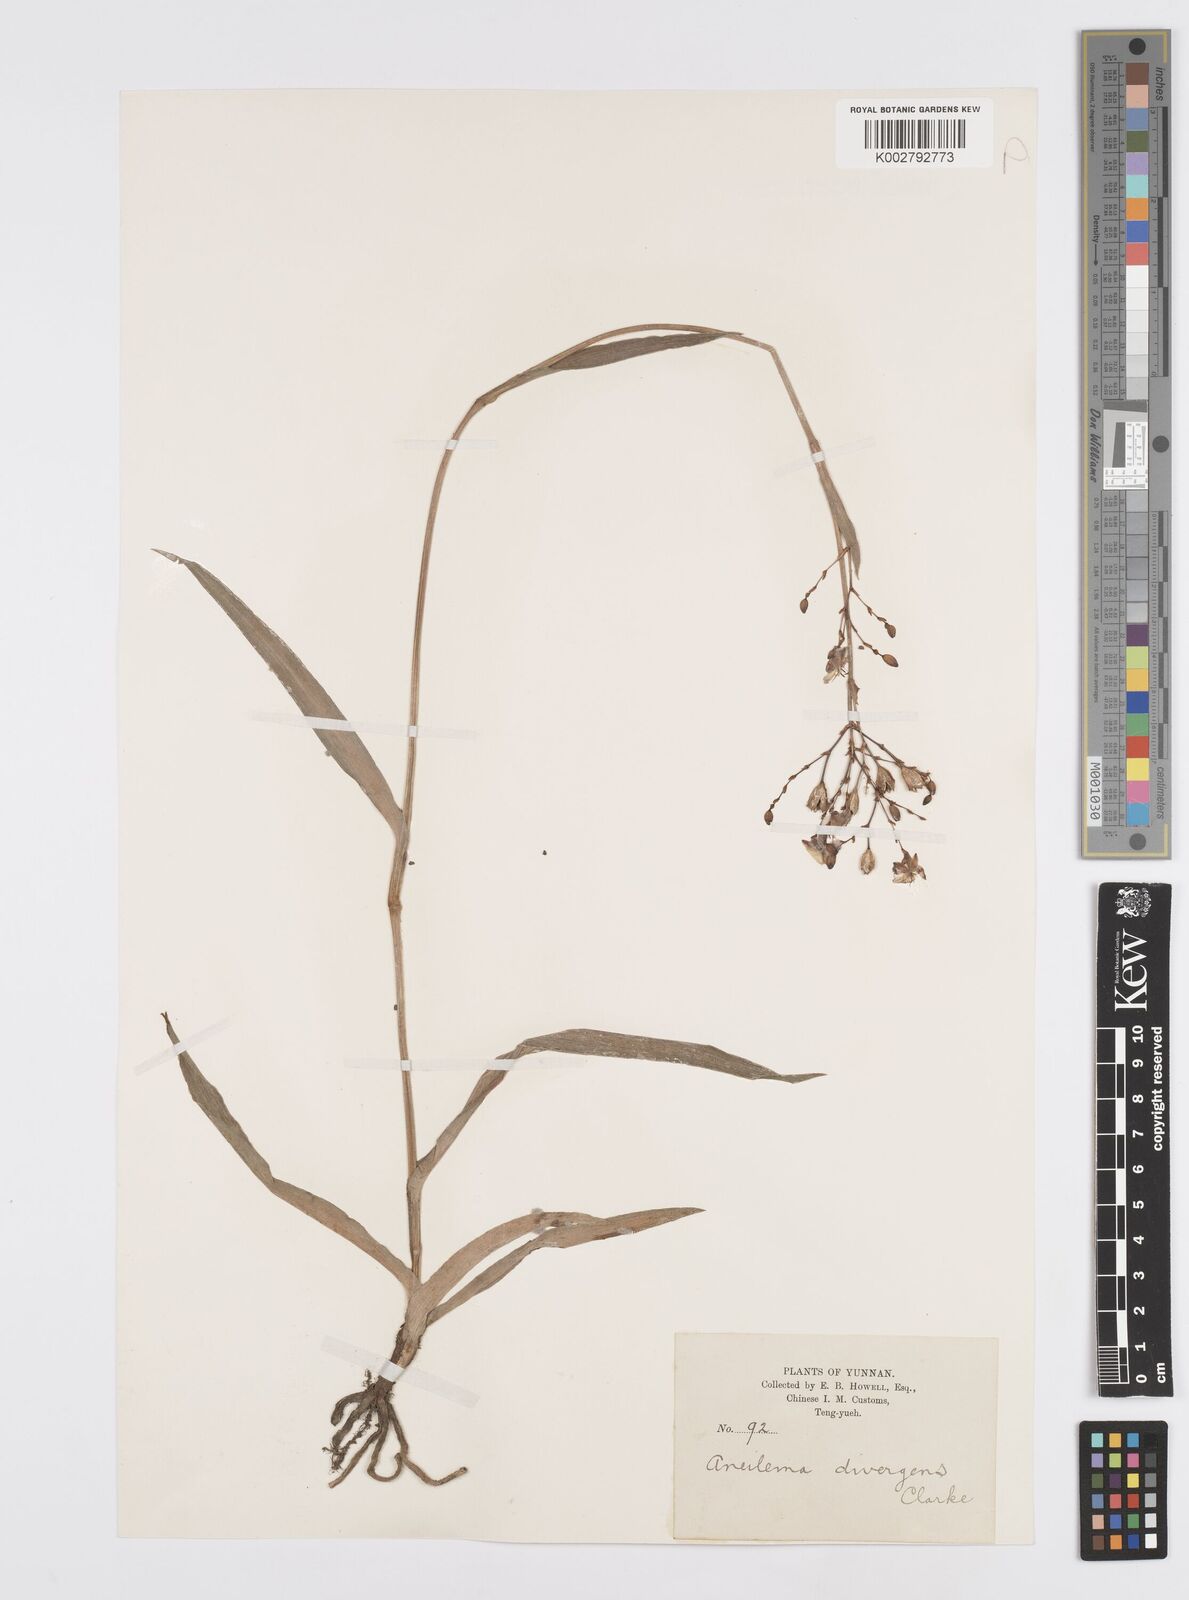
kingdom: Plantae
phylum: Tracheophyta
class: Liliopsida
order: Commelinales
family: Commelinaceae
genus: Murdannia
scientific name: Murdannia divergens
